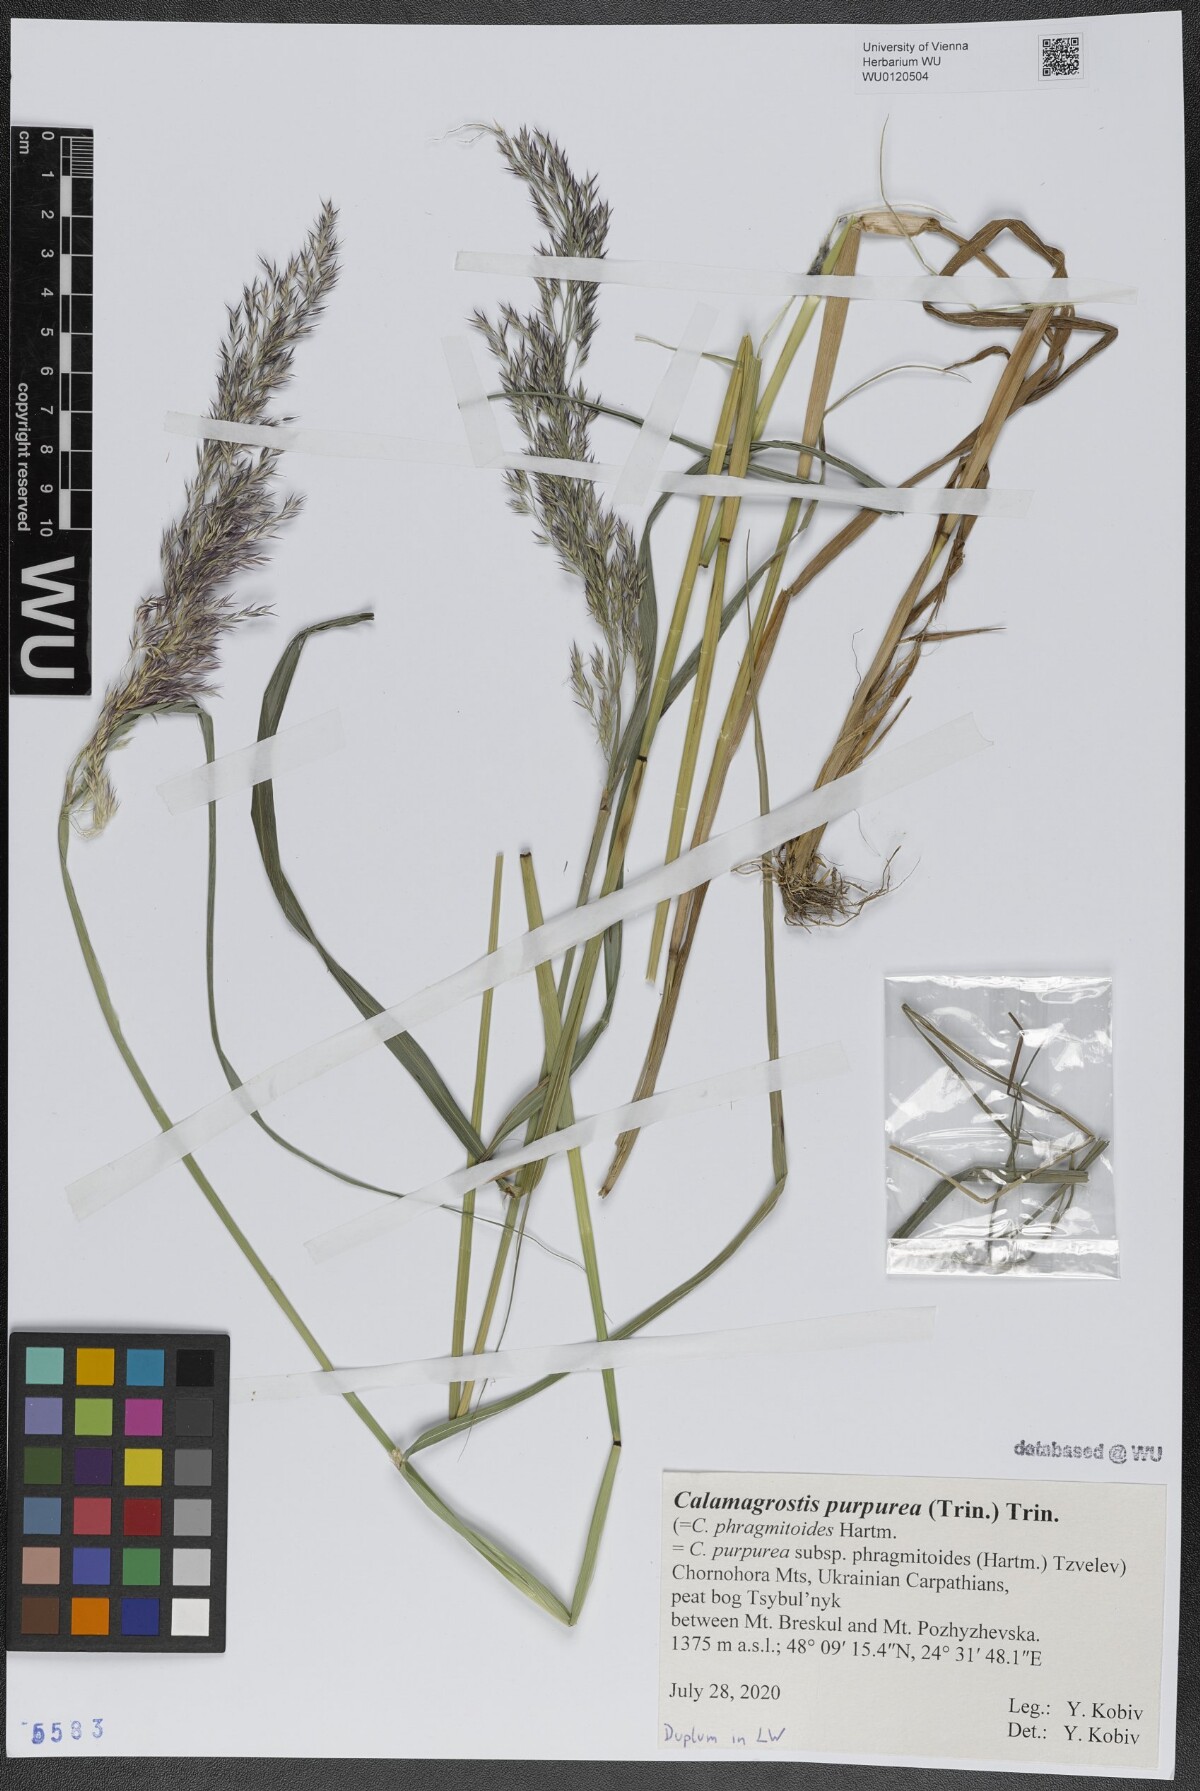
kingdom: Plantae
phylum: Tracheophyta
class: Liliopsida
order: Poales
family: Poaceae
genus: Calamagrostis
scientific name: Calamagrostis purpurea
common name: Scandinavian small-reed
